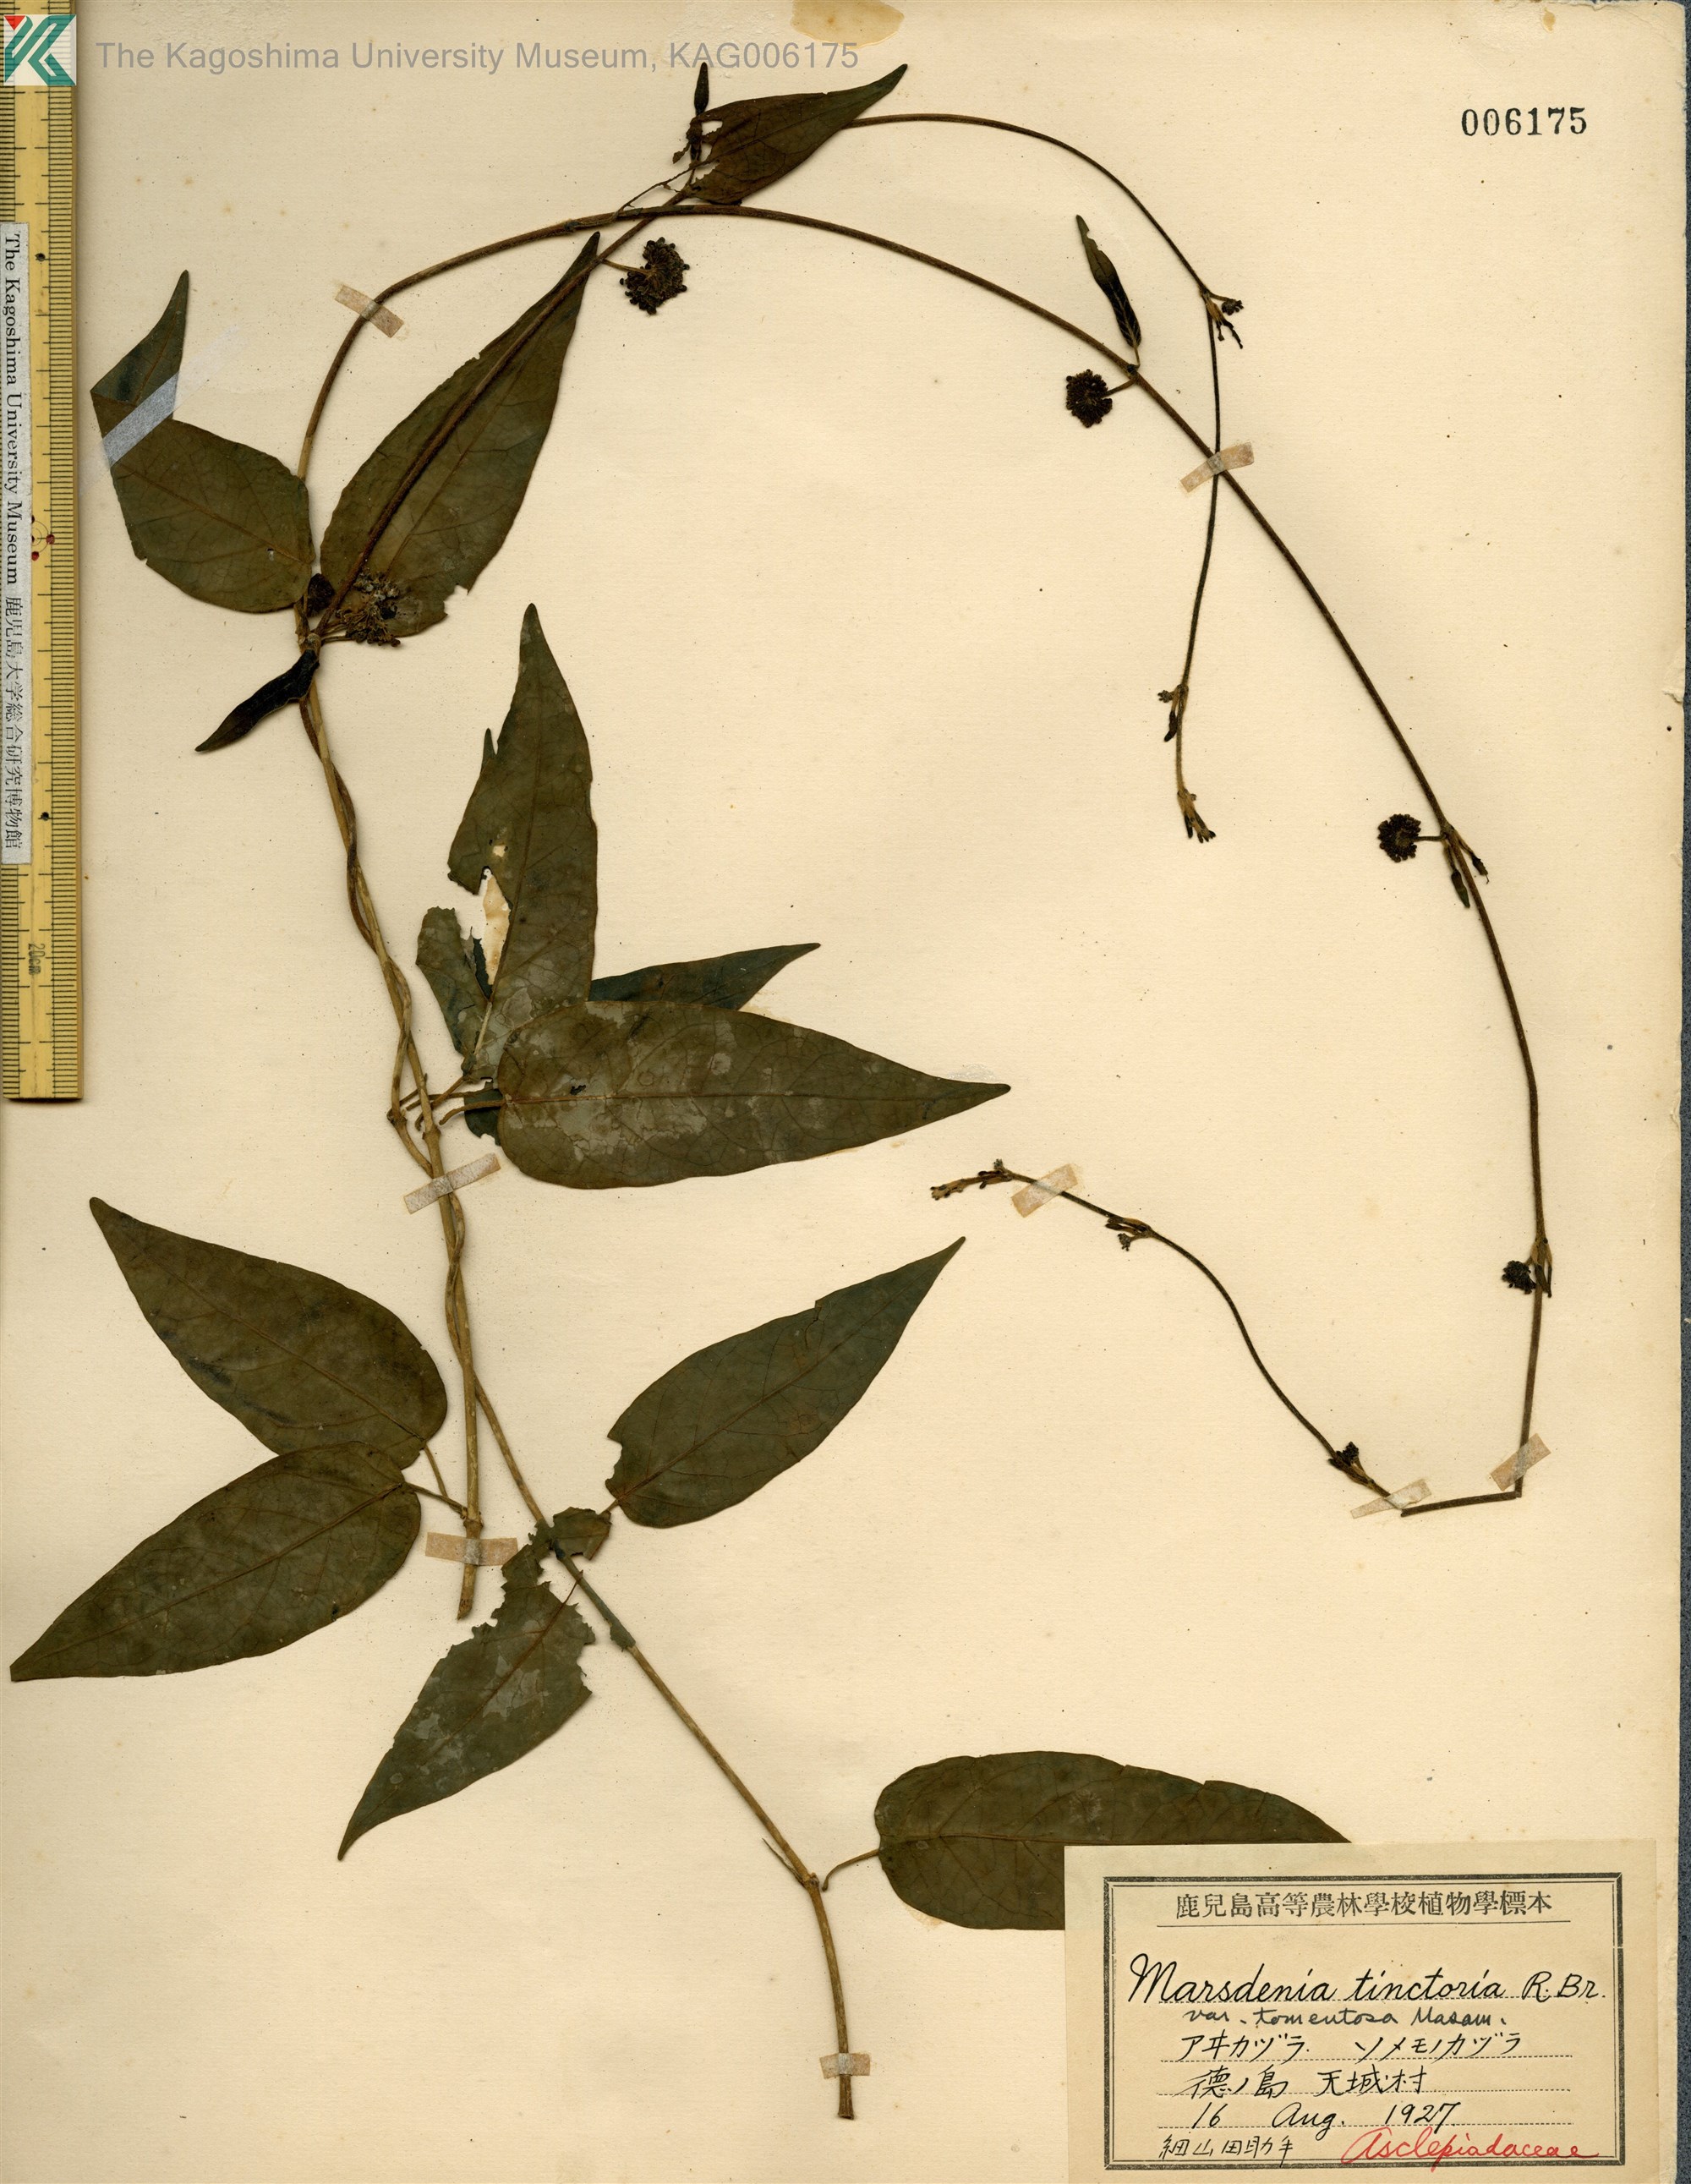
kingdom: Plantae
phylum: Tracheophyta
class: Magnoliopsida
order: Gentianales
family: Apocynaceae
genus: Marsdenia
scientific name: Marsdenia tinctoria
